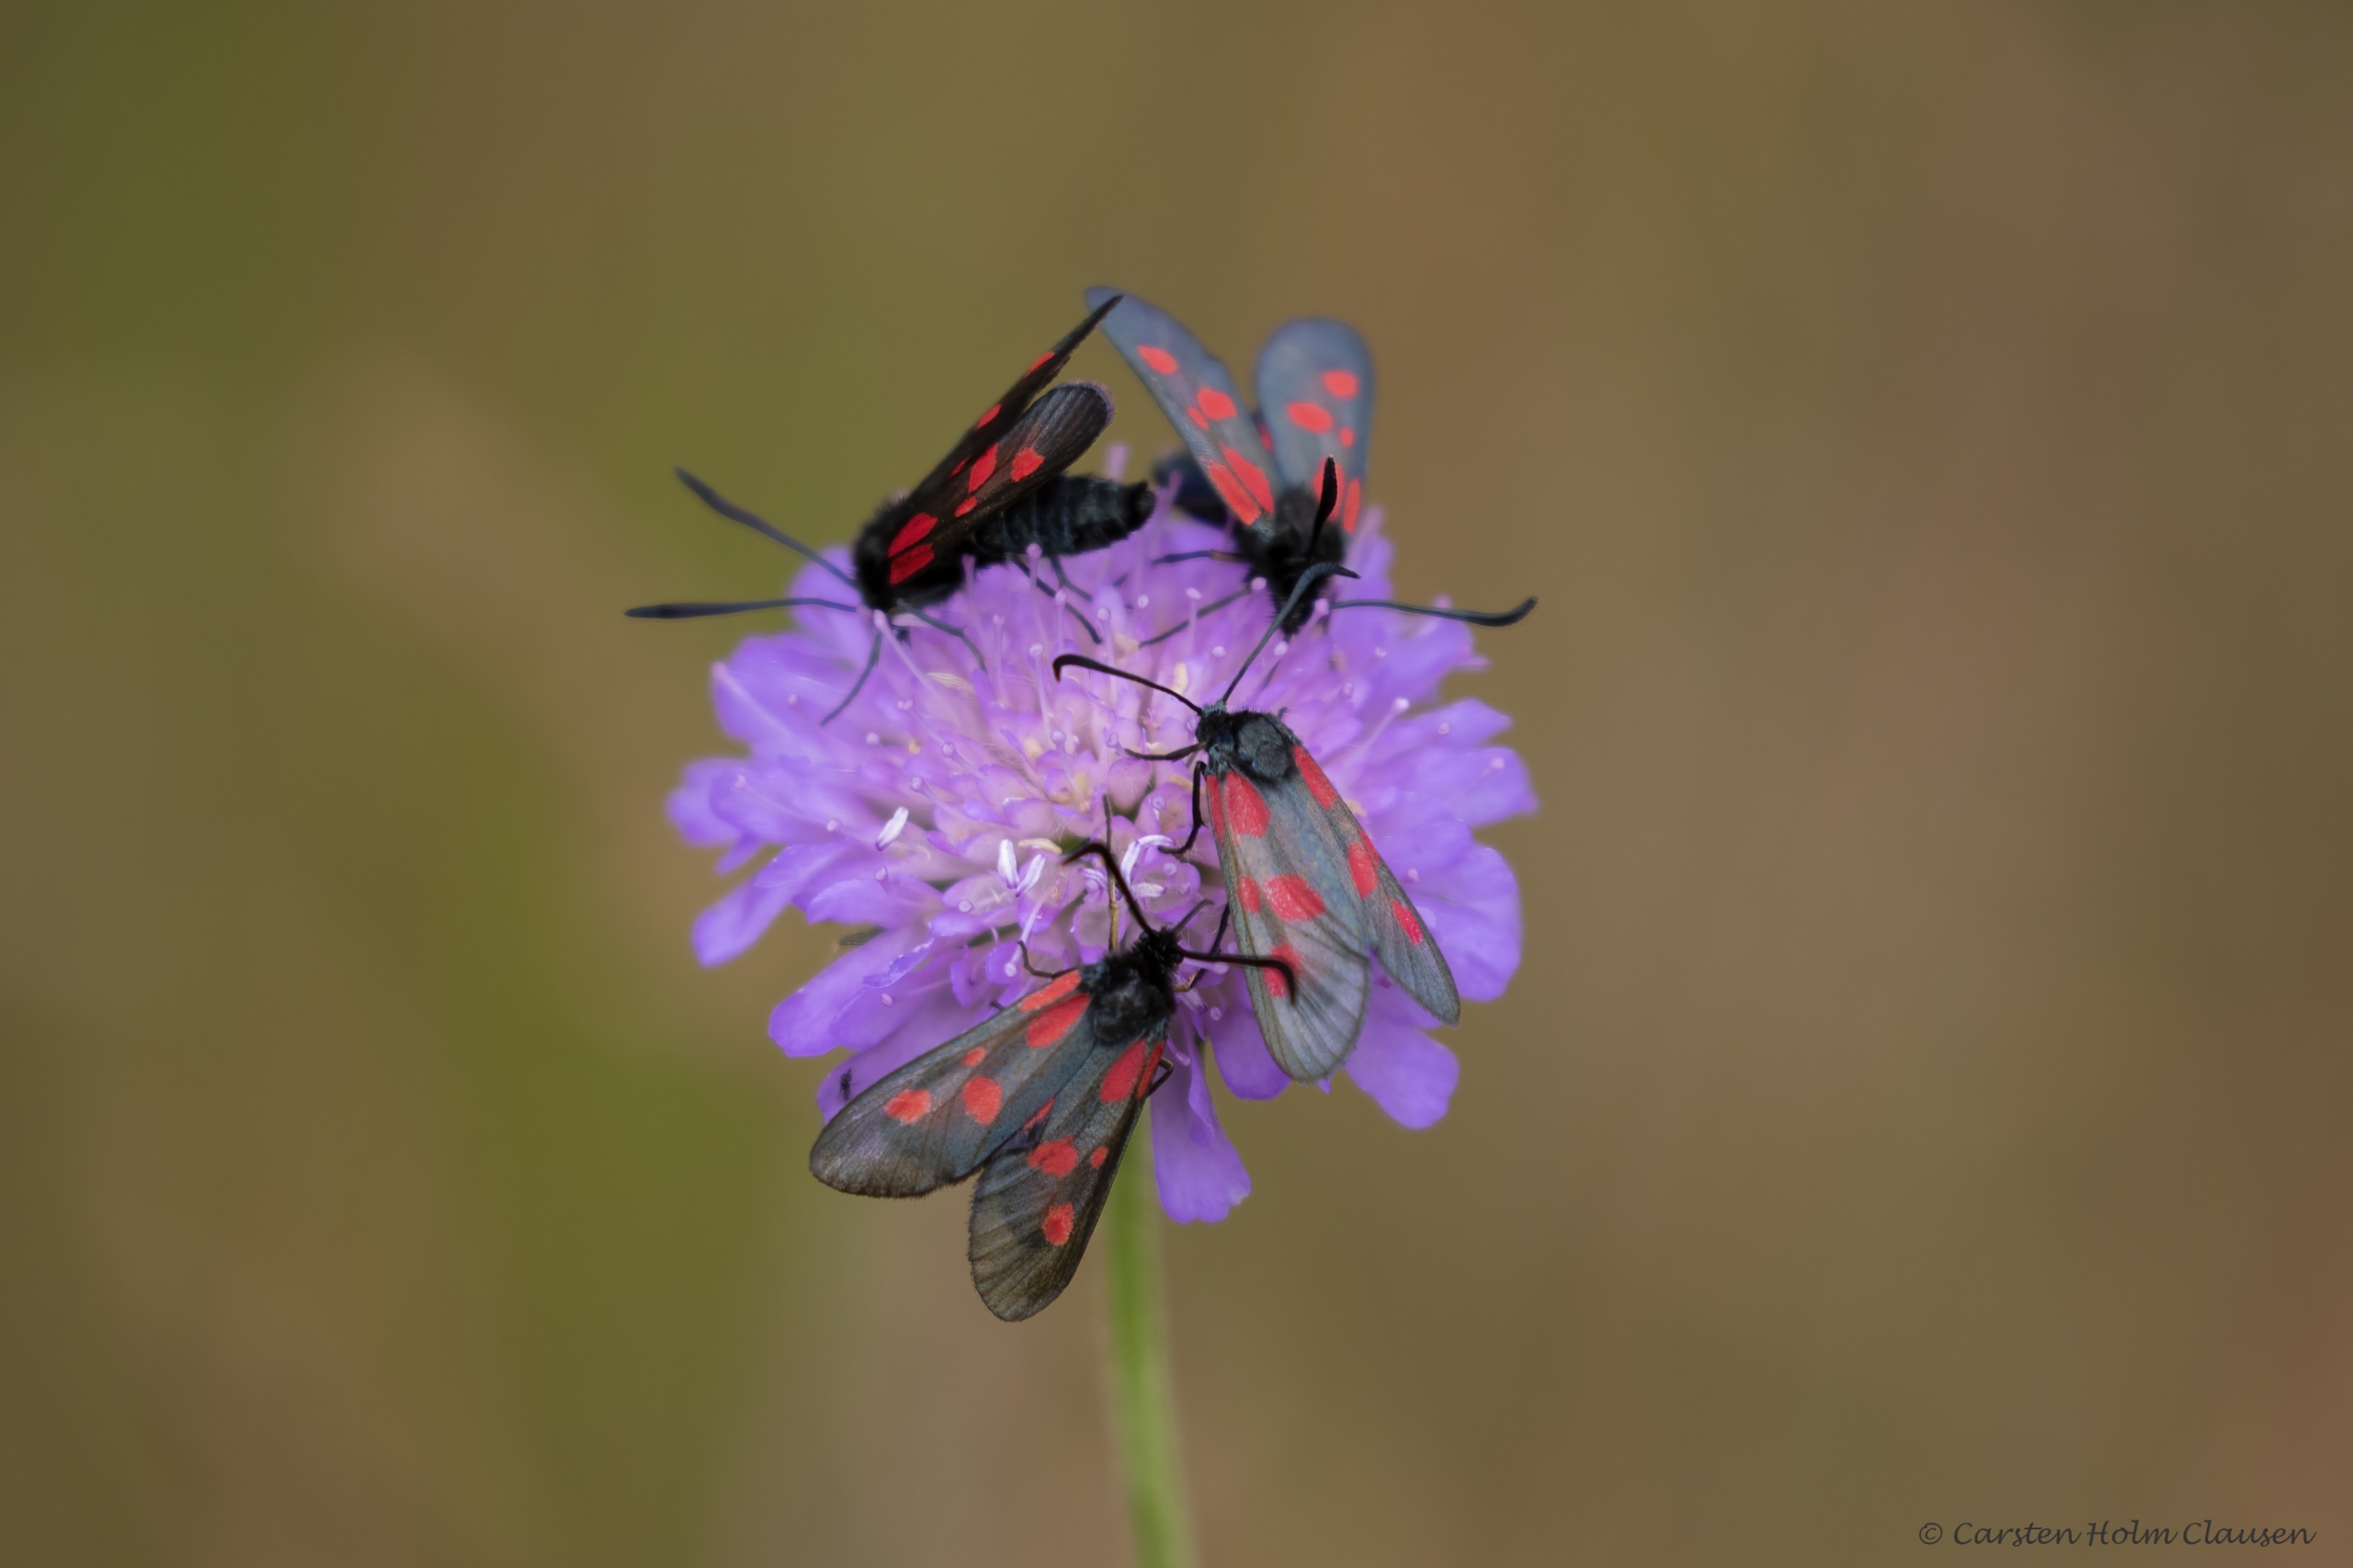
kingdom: Animalia
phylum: Arthropoda
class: Insecta
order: Lepidoptera
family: Zygaenidae
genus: Zygaena
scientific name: Zygaena lonicerae
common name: Femplettet køllesværmer
